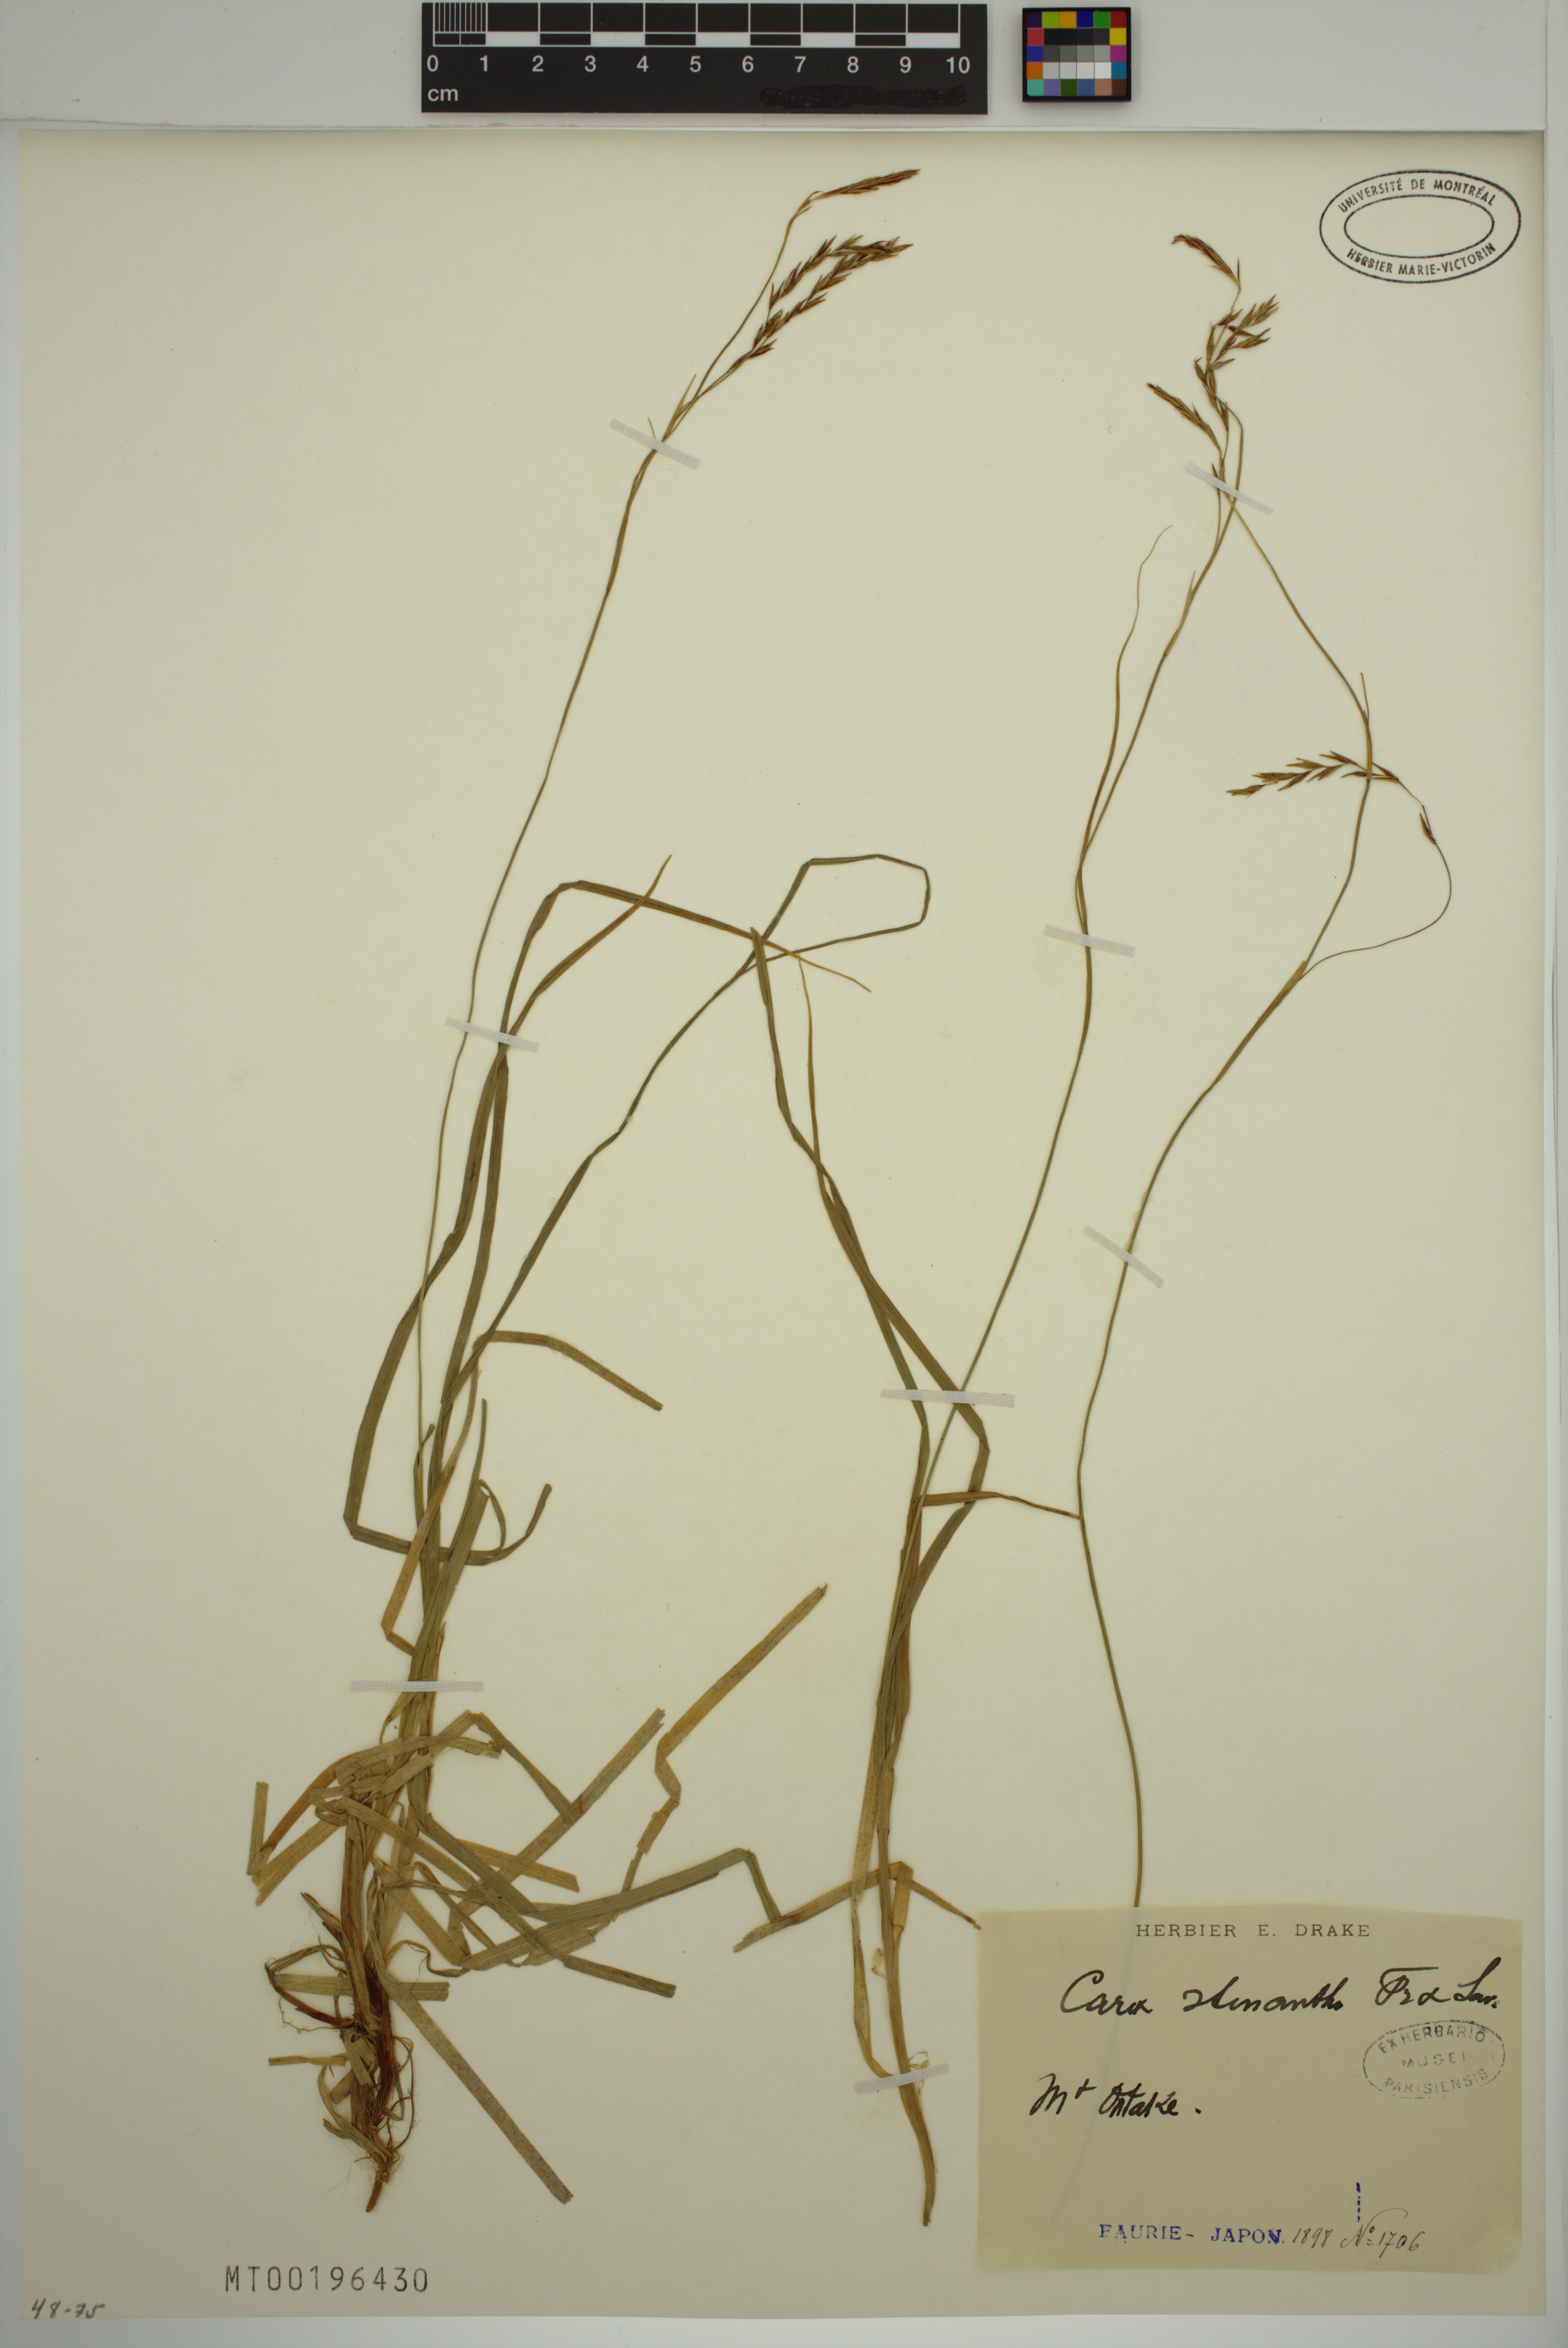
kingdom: Plantae
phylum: Tracheophyta
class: Liliopsida
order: Poales
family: Cyperaceae
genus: Carex
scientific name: Carex stenantha
